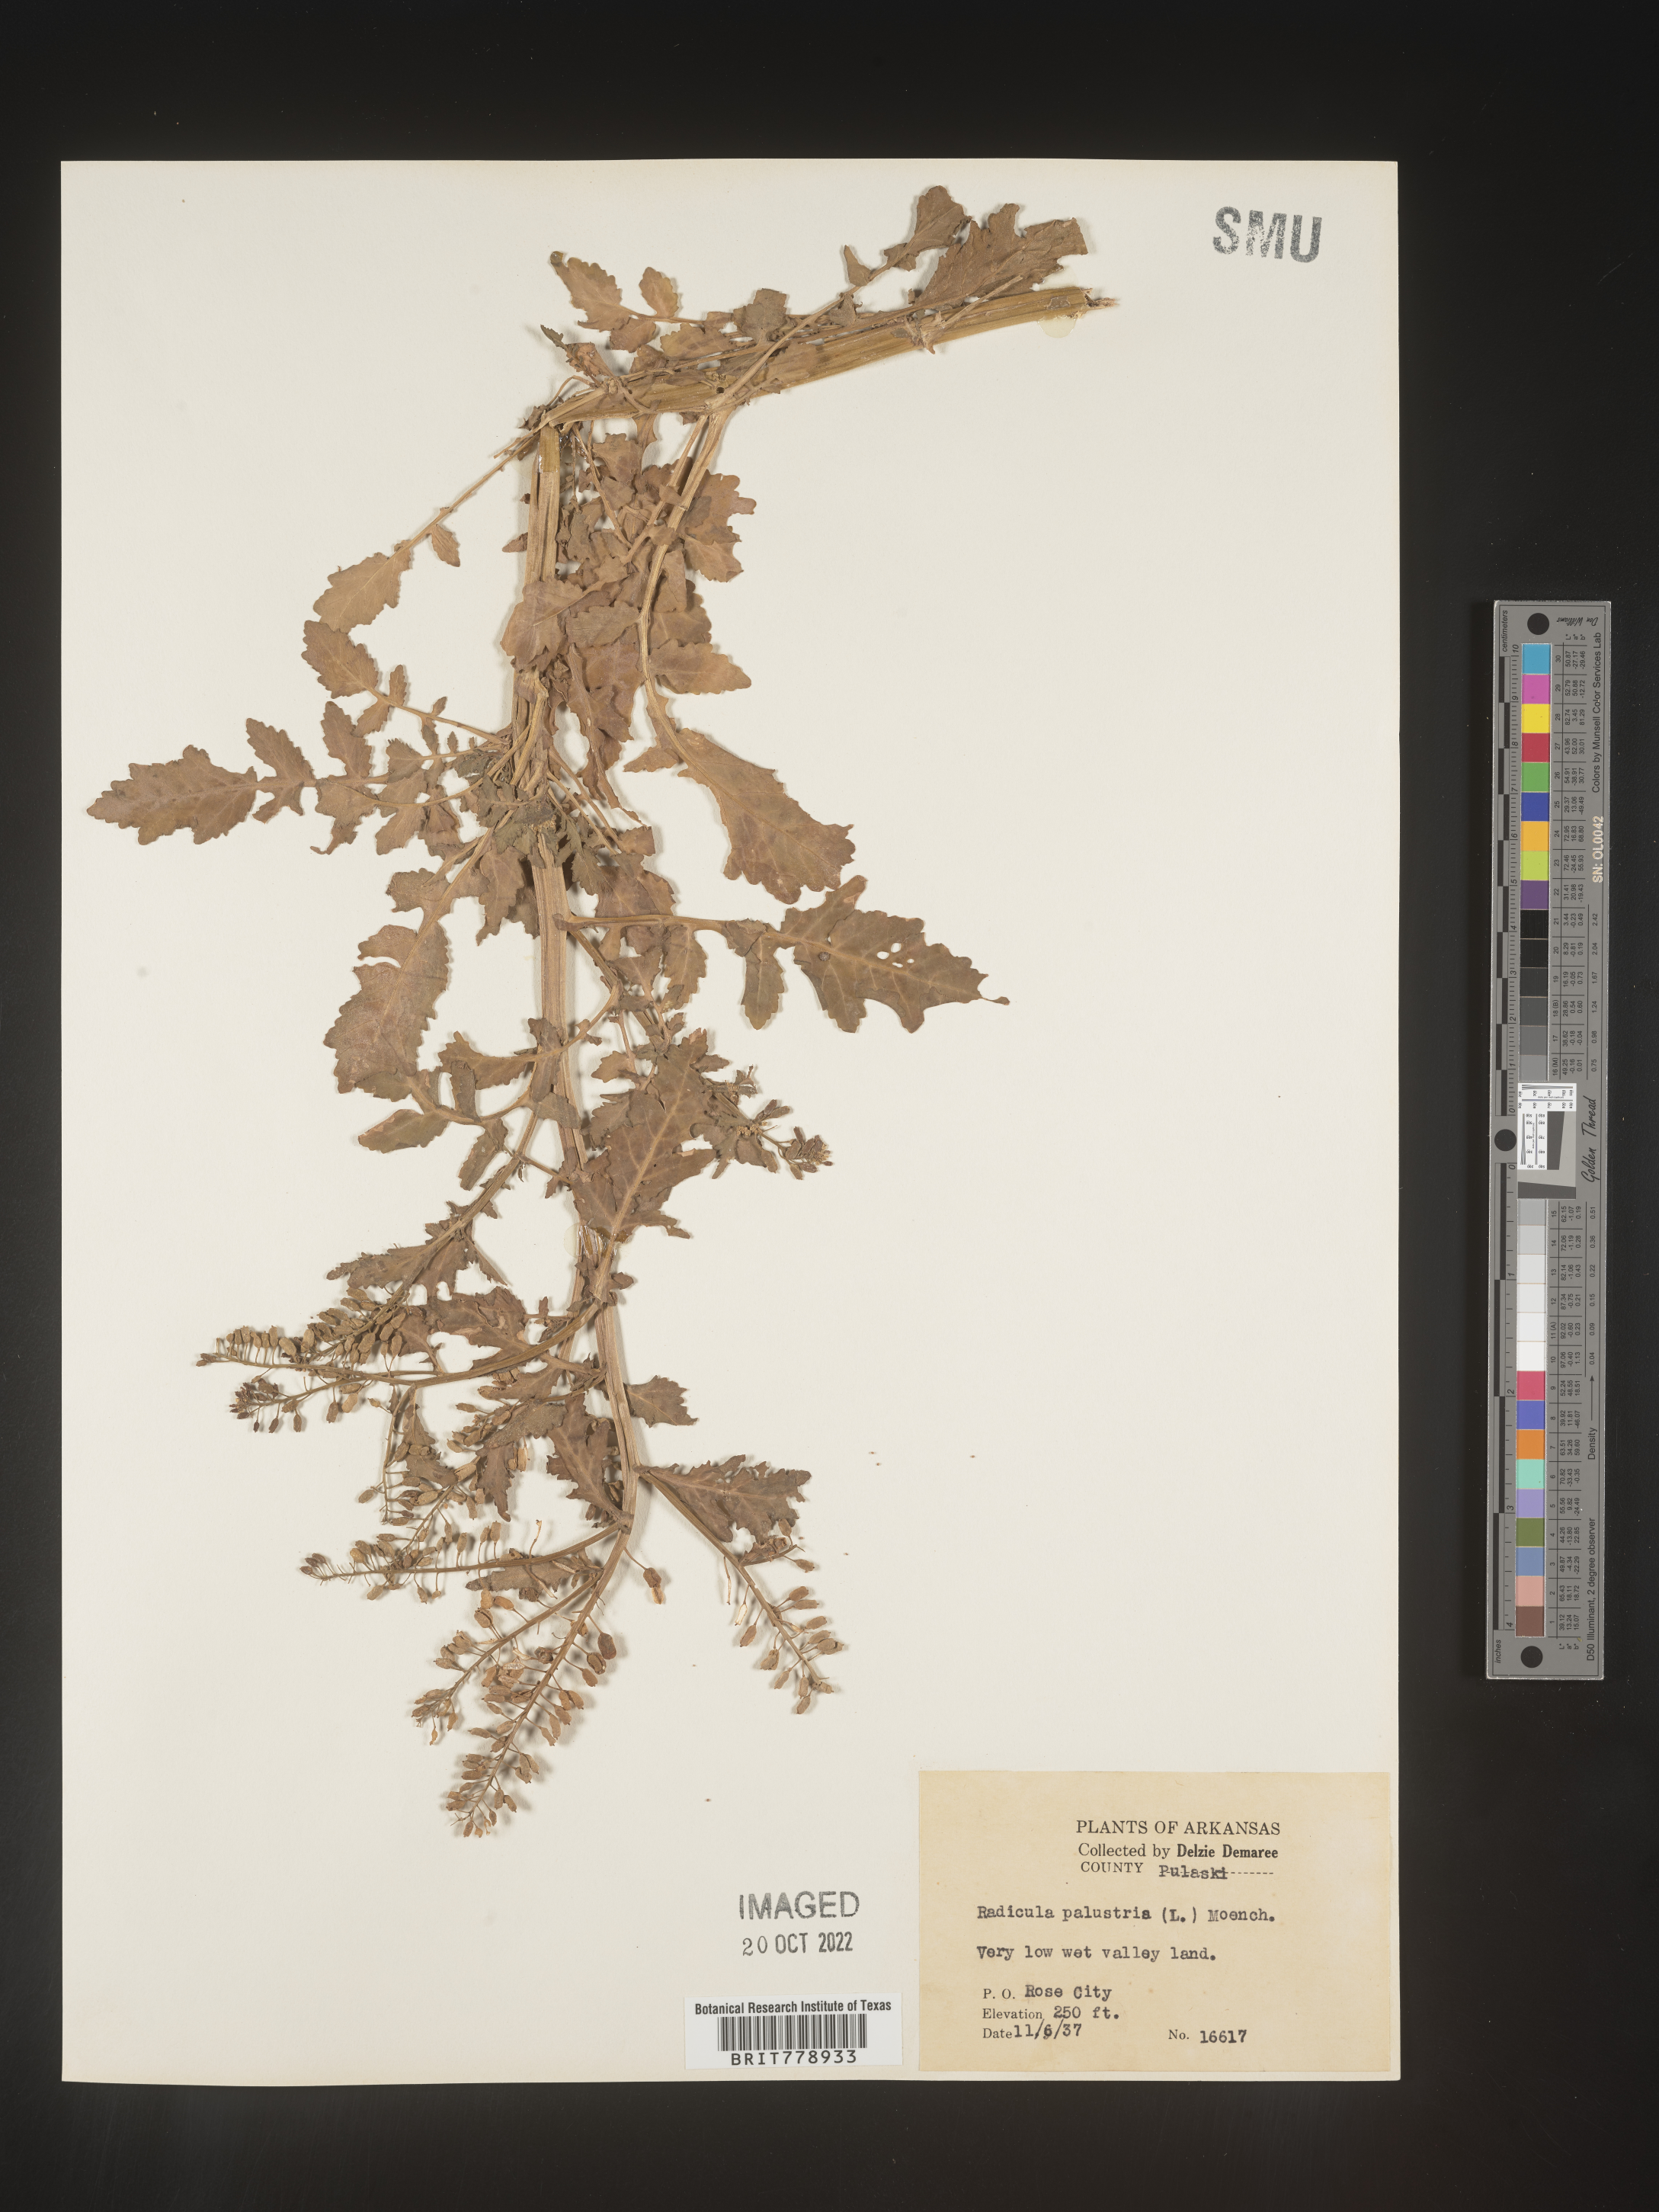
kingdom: Plantae
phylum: Tracheophyta
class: Magnoliopsida
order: Brassicales
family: Brassicaceae
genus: Rorippa
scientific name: Rorippa palustris
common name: Marsh yellow-cress
